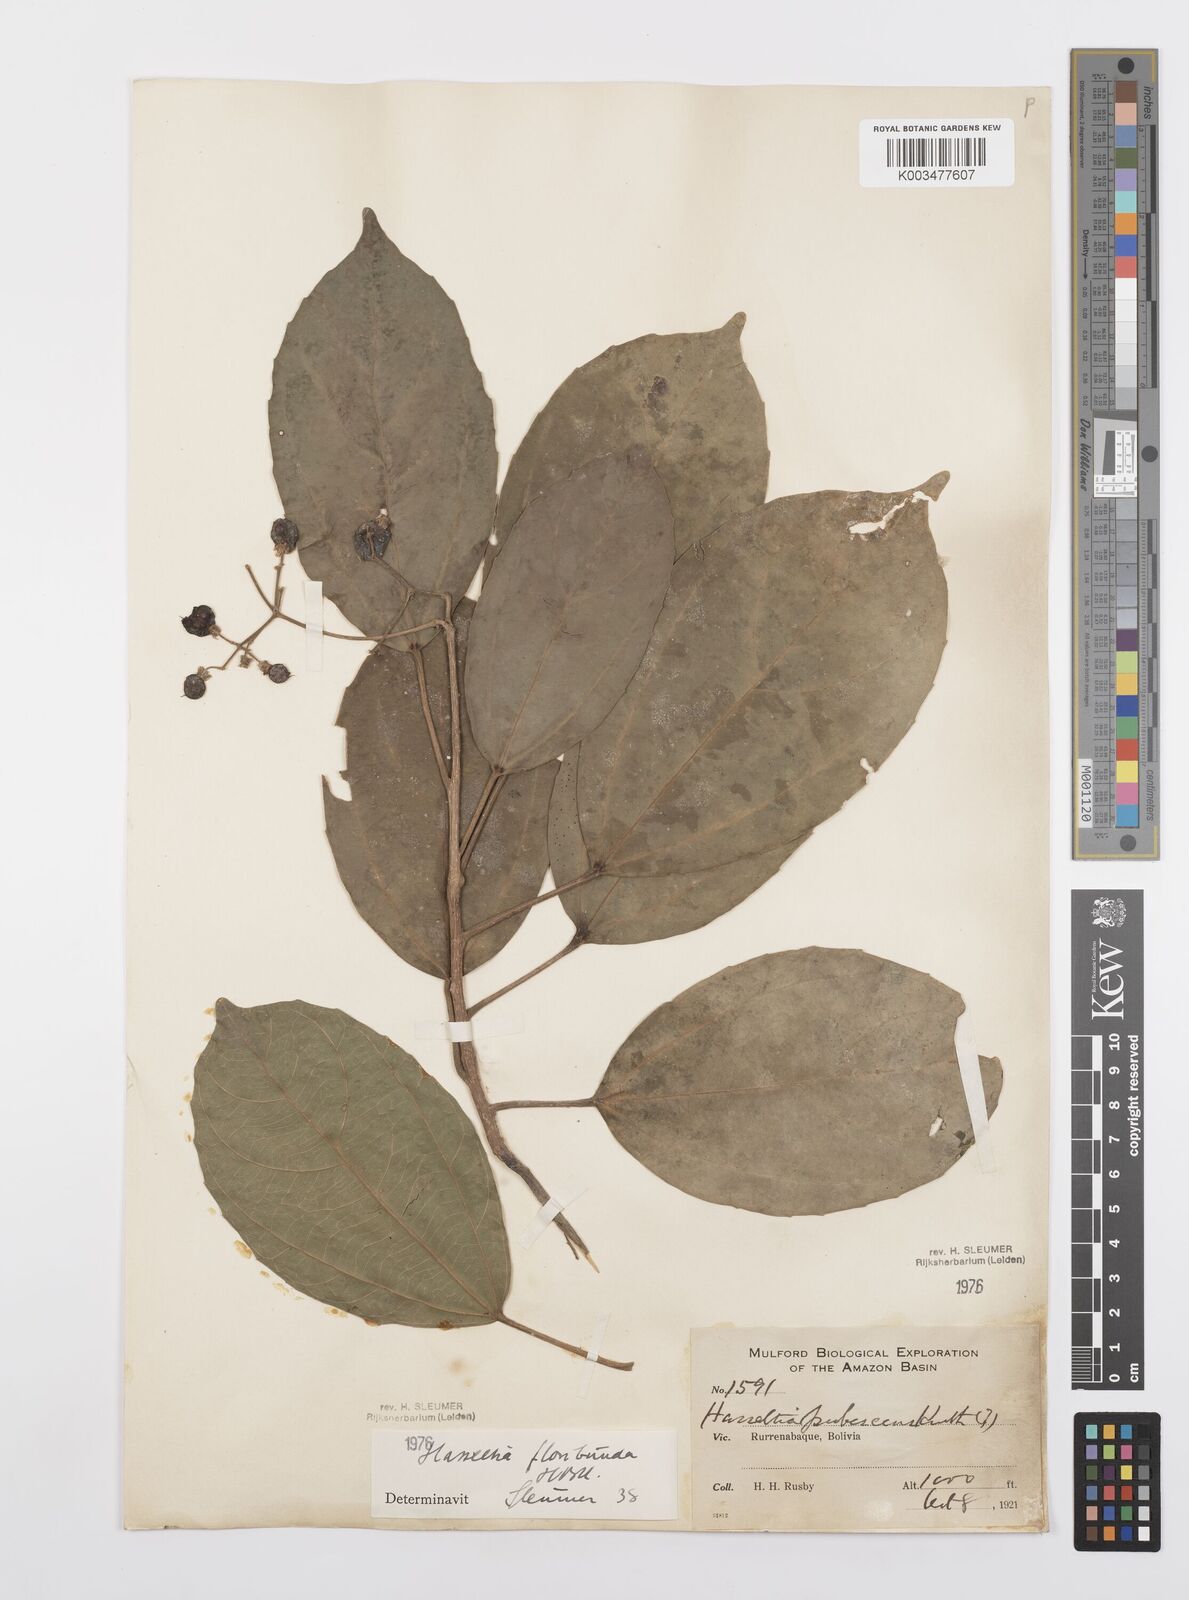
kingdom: Plantae
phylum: Tracheophyta
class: Magnoliopsida
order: Malpighiales
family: Salicaceae
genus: Hasseltia
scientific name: Hasseltia floribunda
